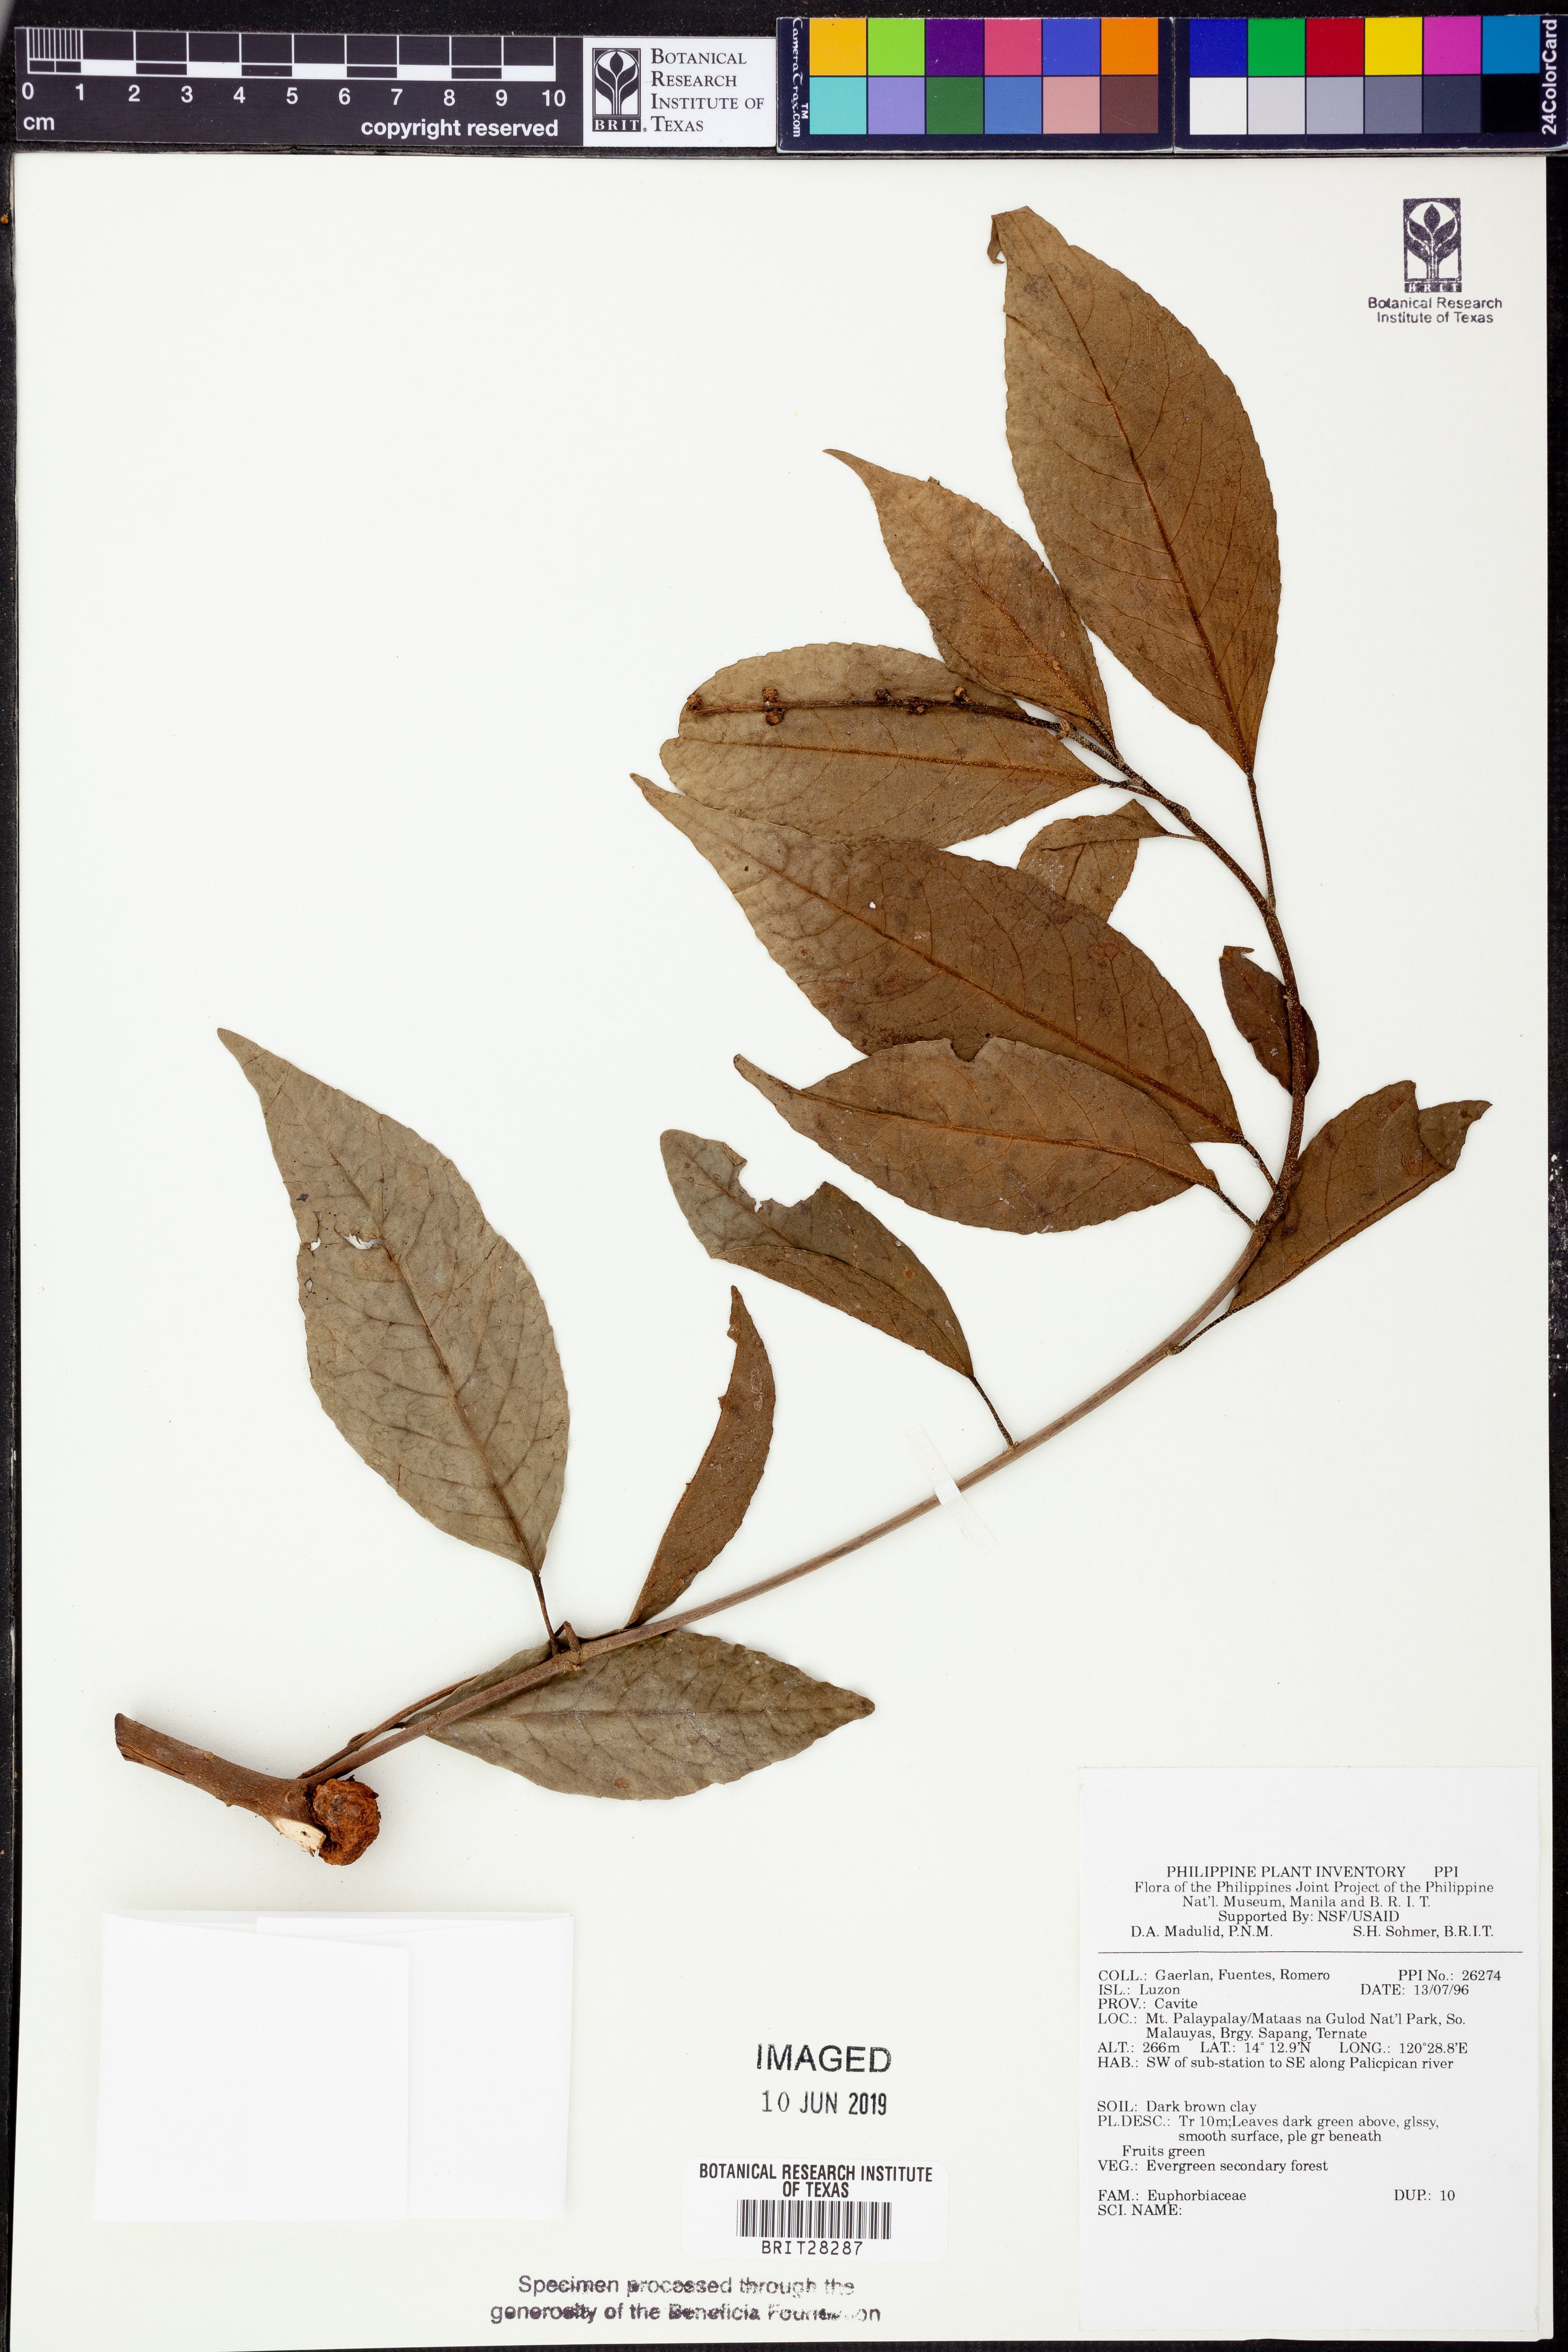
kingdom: Plantae
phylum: Tracheophyta
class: Magnoliopsida
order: Malpighiales
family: Euphorbiaceae
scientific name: Euphorbiaceae
